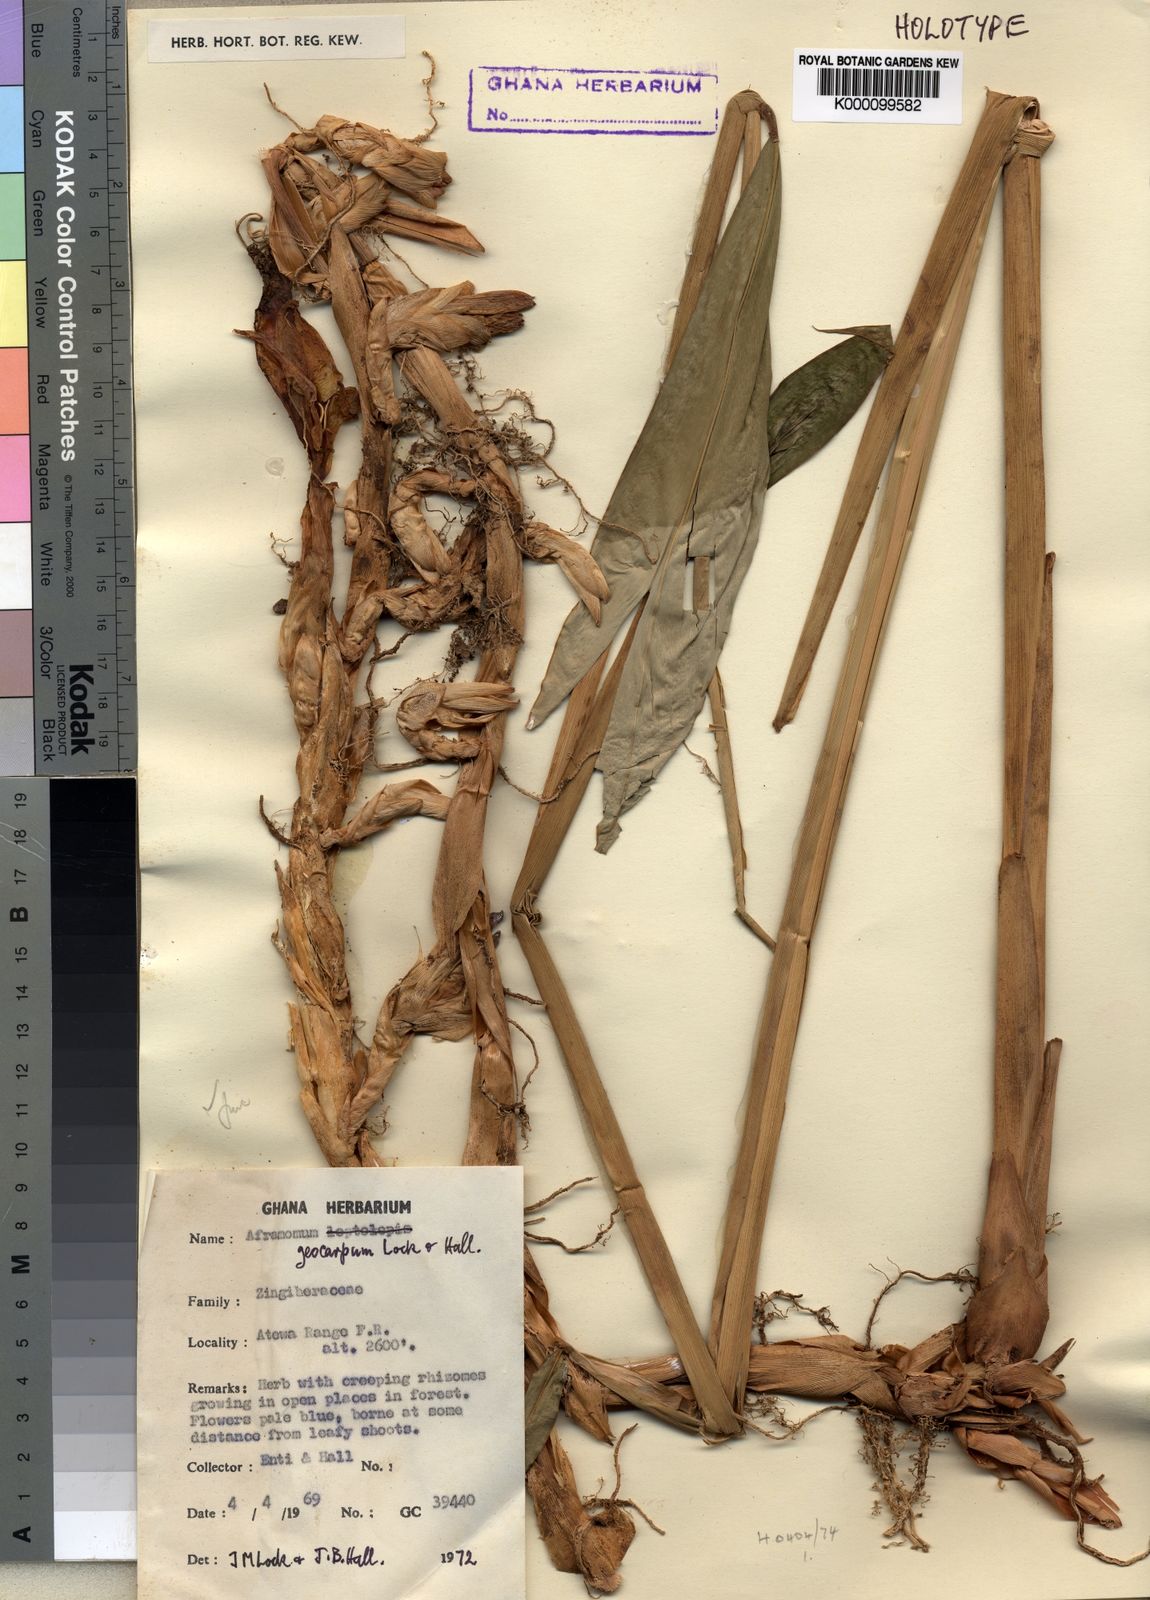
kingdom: Plantae
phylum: Tracheophyta
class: Liliopsida
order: Zingiberales
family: Zingiberaceae
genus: Aframomum
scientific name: Aframomum limbatum
